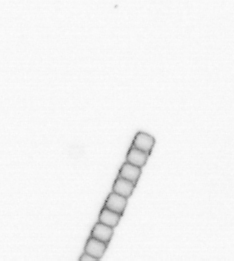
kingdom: Chromista
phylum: Ochrophyta
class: Bacillariophyceae
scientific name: Bacillariophyceae
